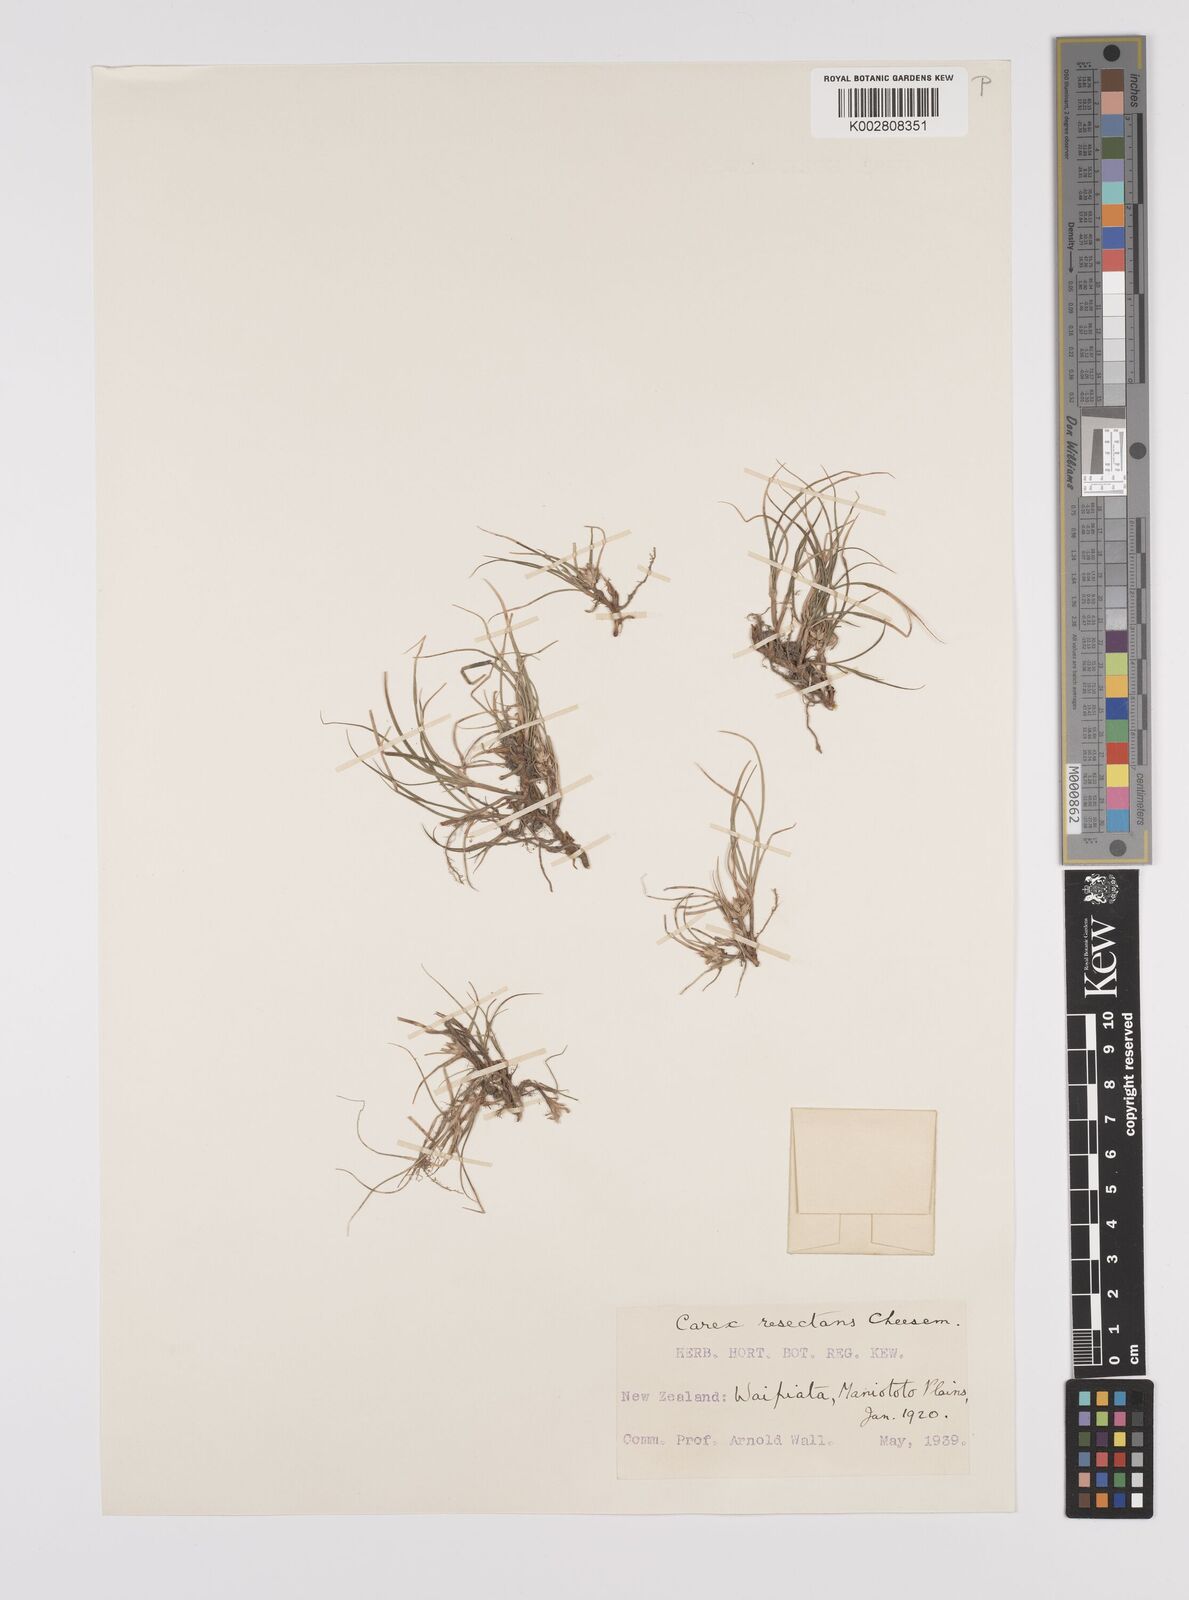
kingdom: Plantae
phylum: Tracheophyta
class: Liliopsida
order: Poales
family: Cyperaceae
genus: Carex
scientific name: Carex resectans
